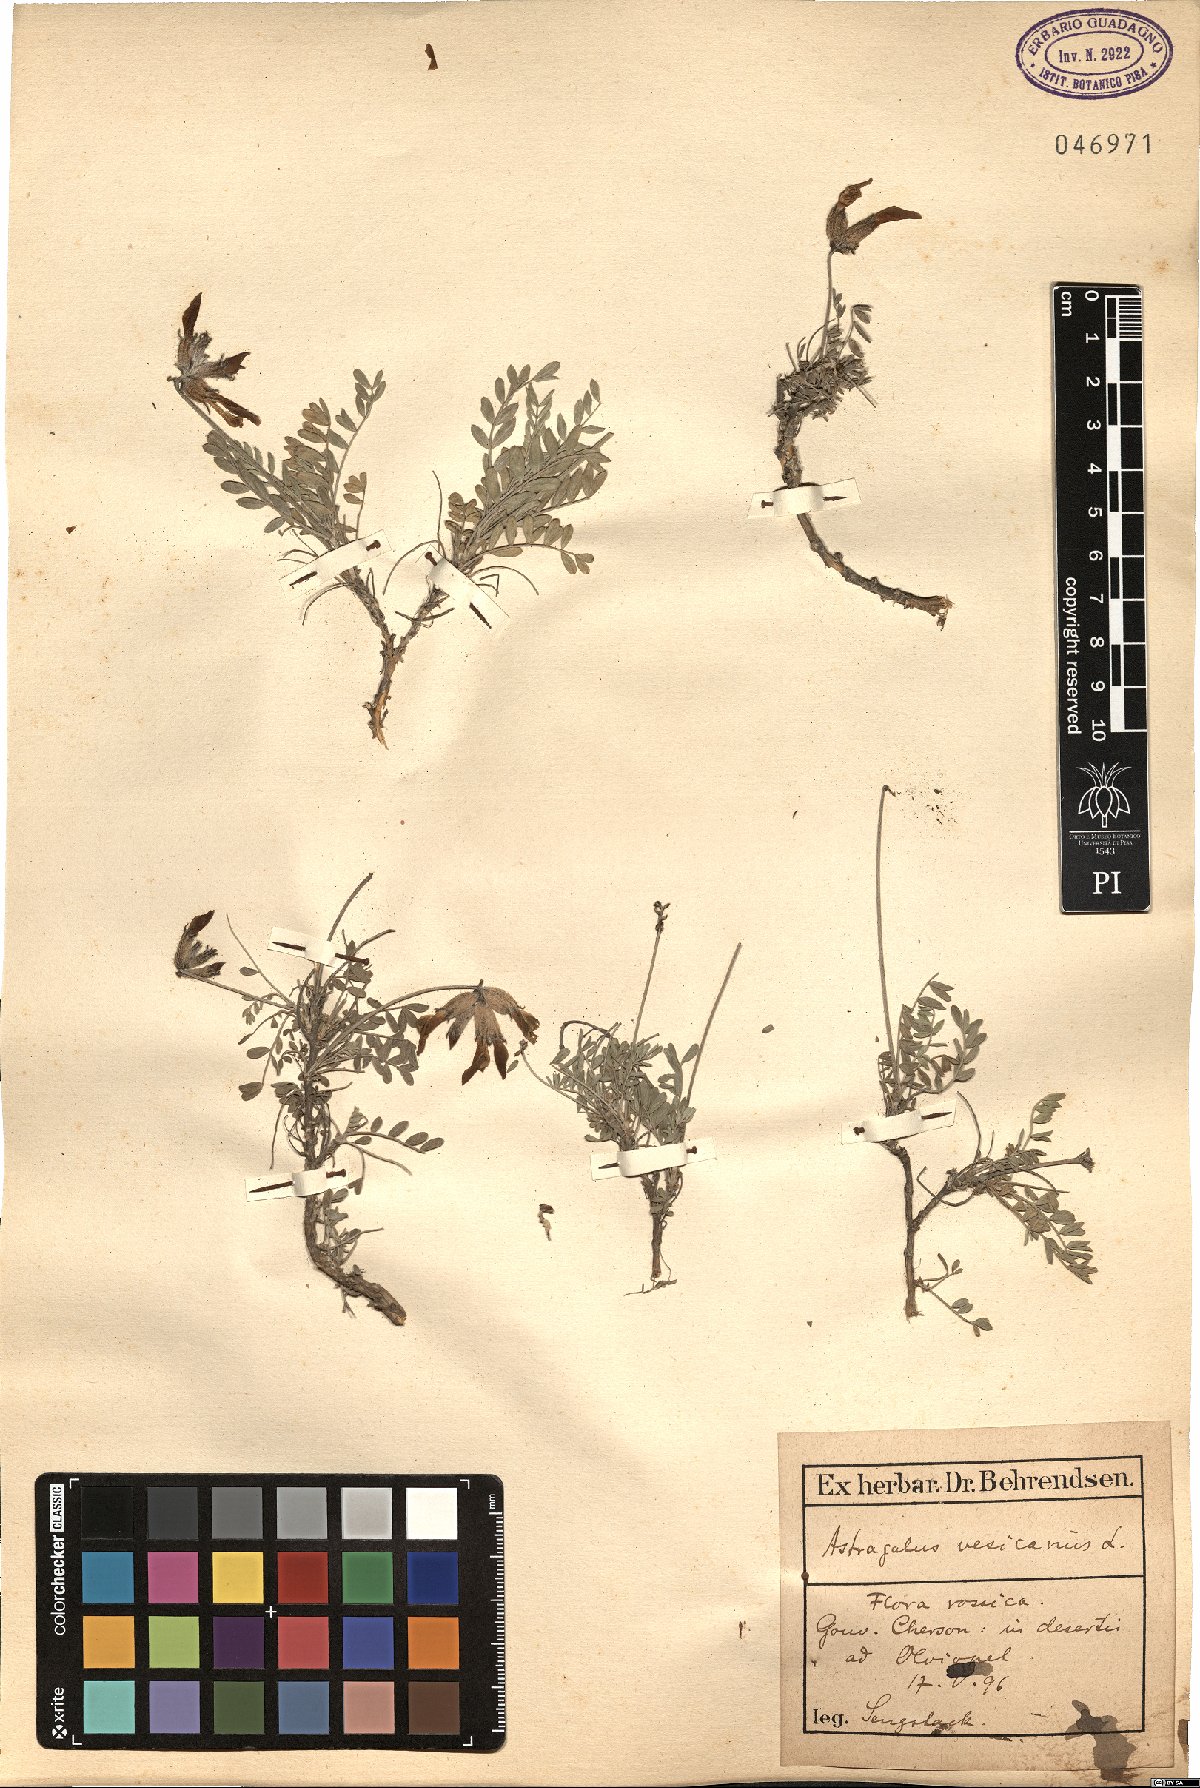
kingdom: Plantae
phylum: Tracheophyta
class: Magnoliopsida
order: Fabales
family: Fabaceae
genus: Astragalus
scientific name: Astragalus vesicarius
